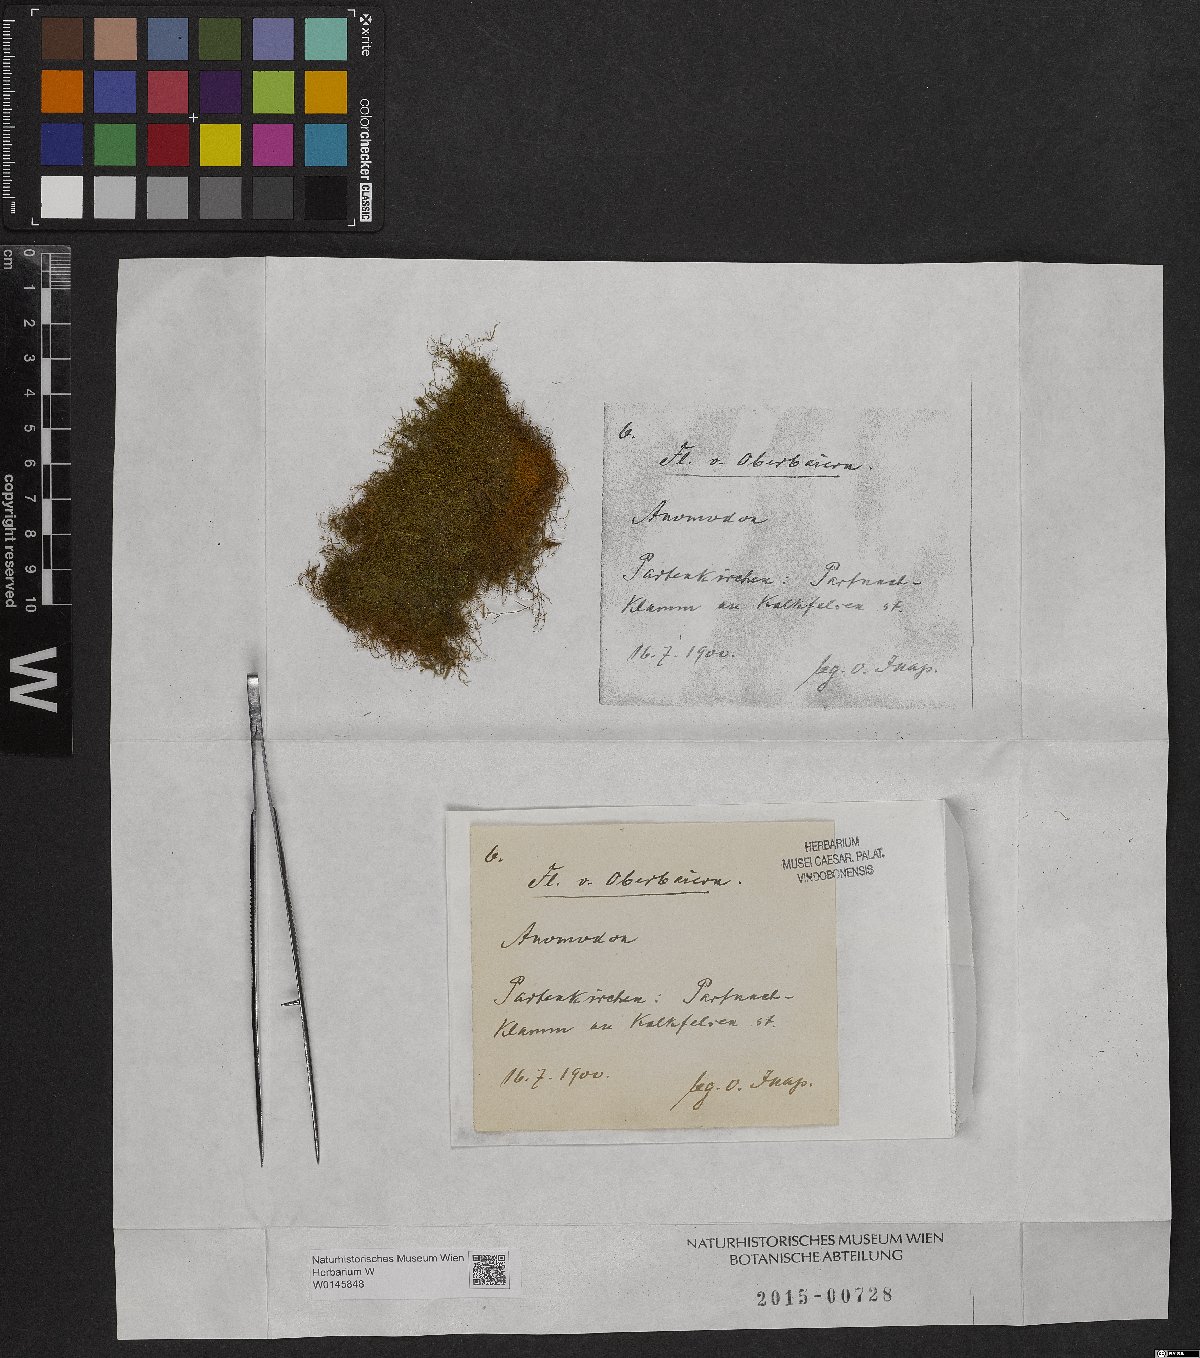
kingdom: Plantae
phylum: Bryophyta
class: Bryopsida
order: Hypnales
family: Anomodontaceae
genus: Anomodon
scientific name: Anomodon
